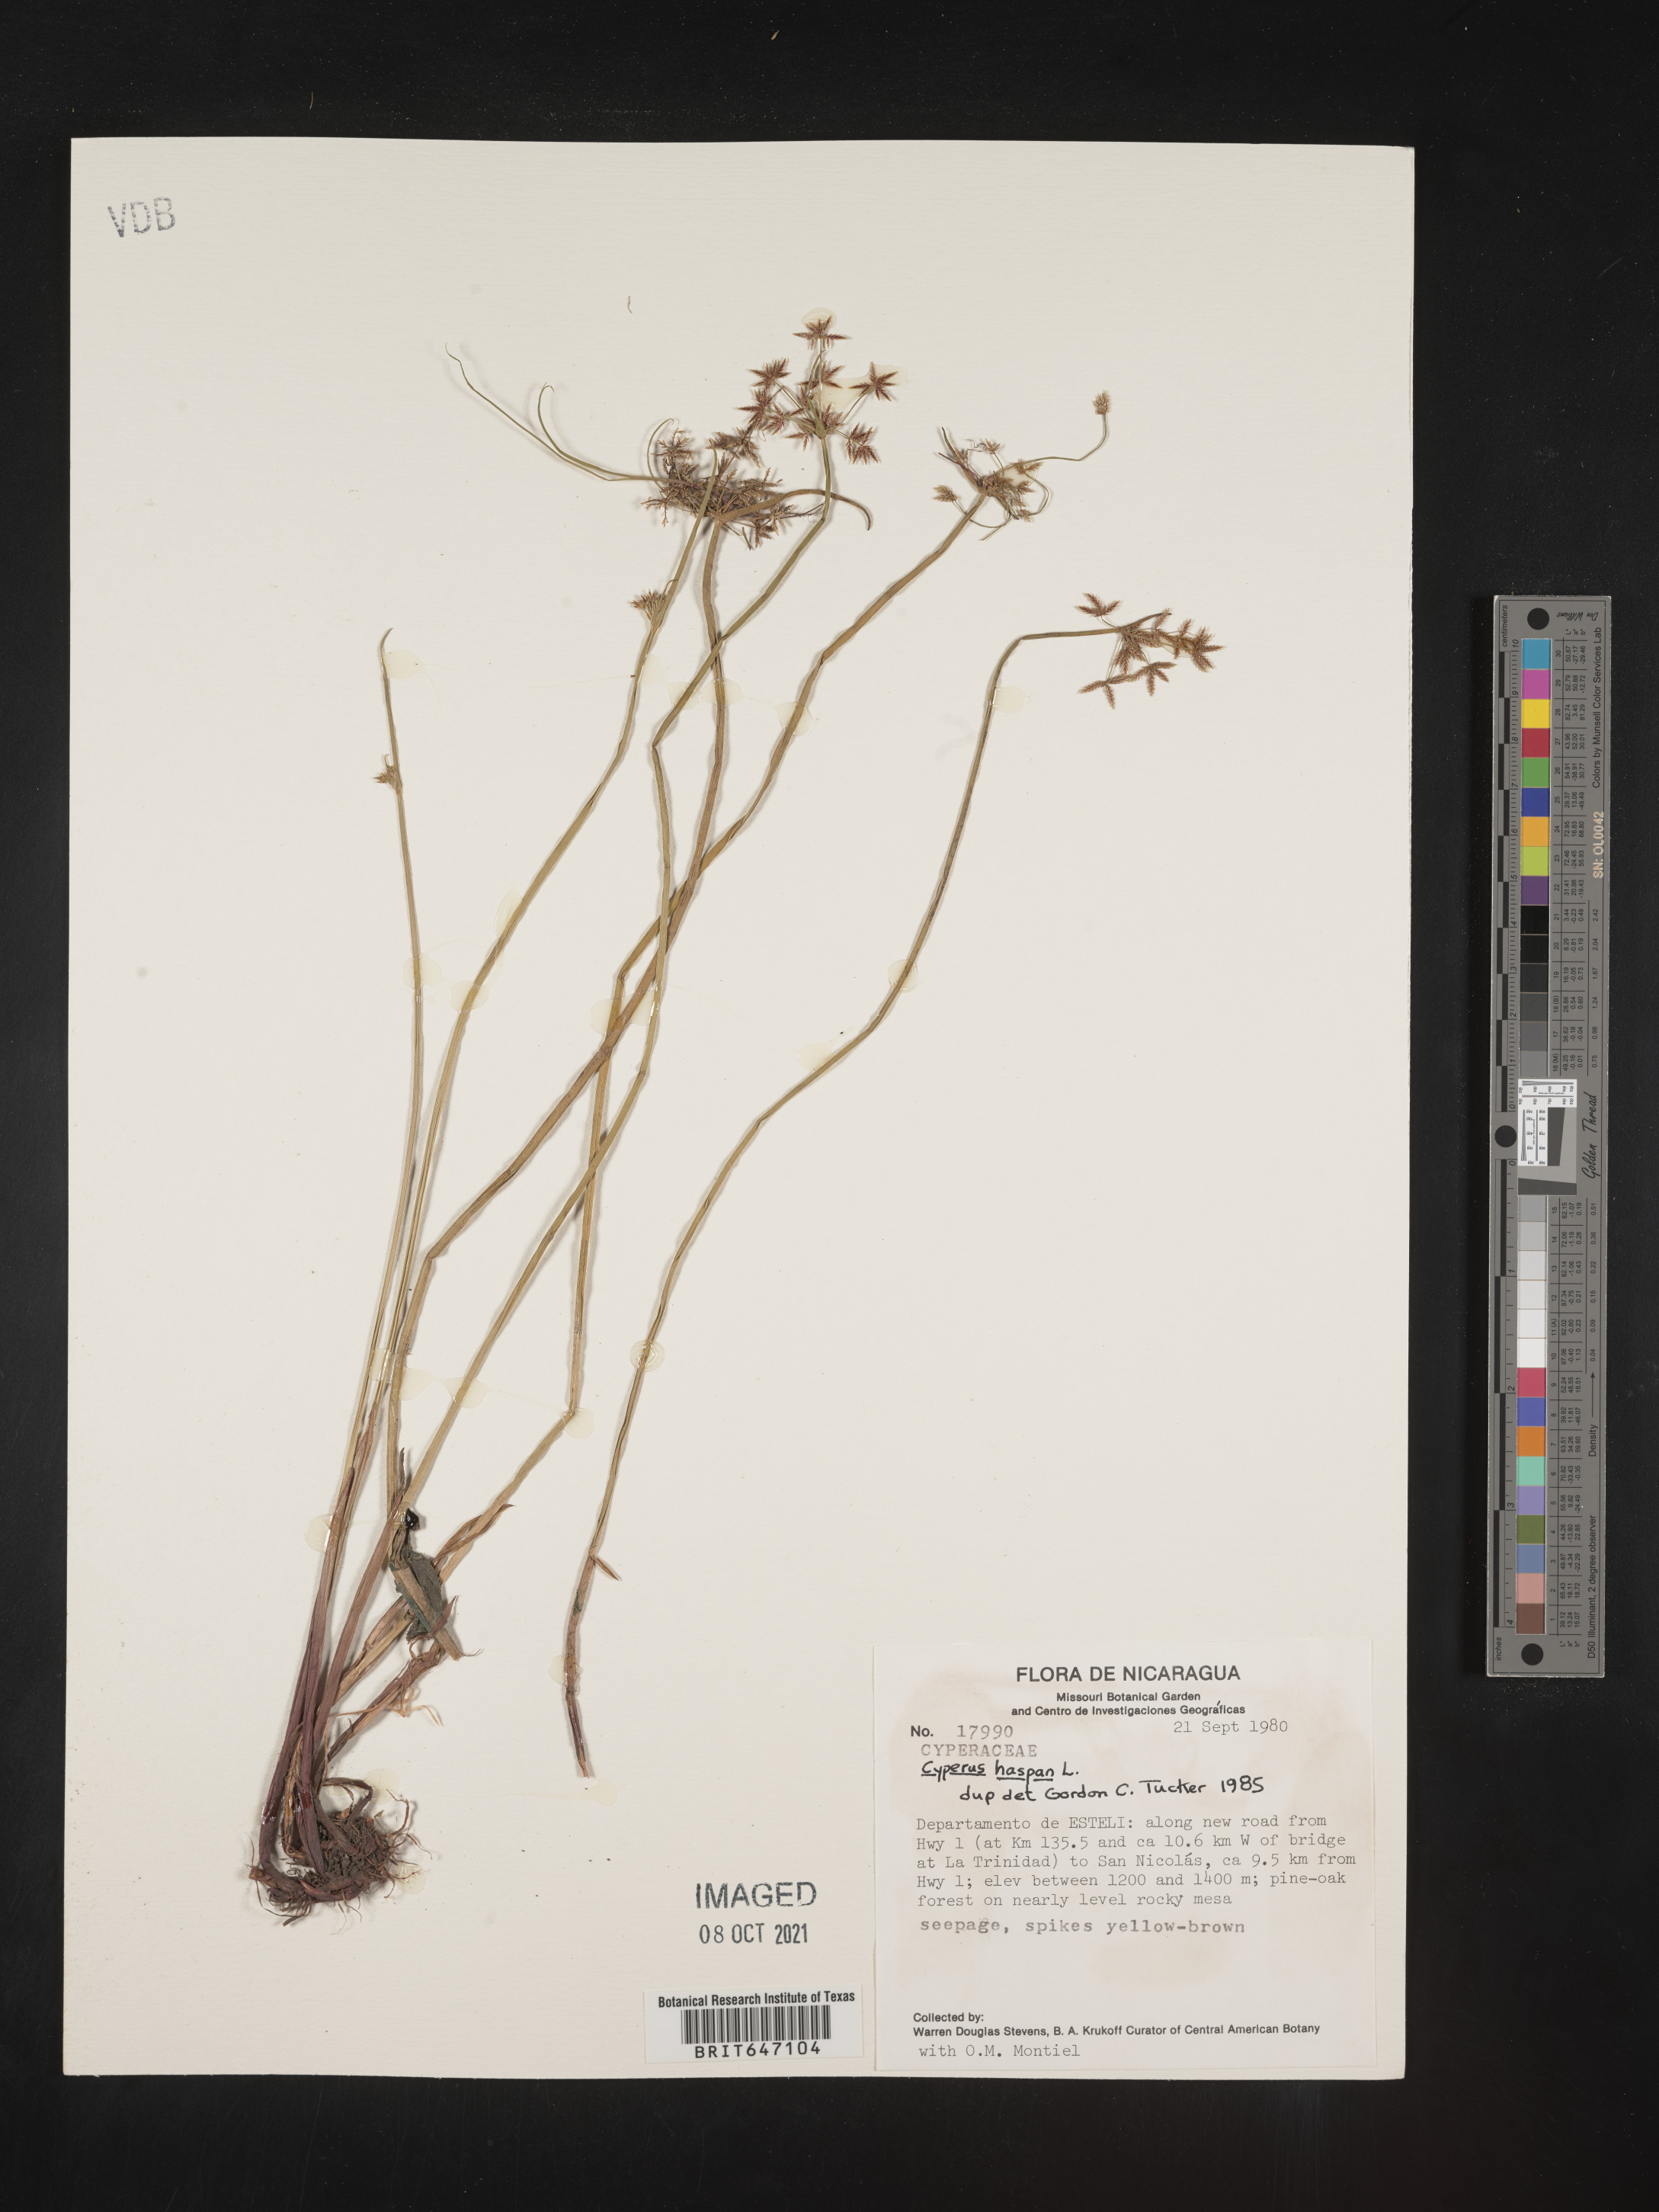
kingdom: Plantae
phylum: Tracheophyta
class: Liliopsida
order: Poales
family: Cyperaceae
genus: Cyperus
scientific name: Cyperus haspan
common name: Haspan flatsedge
